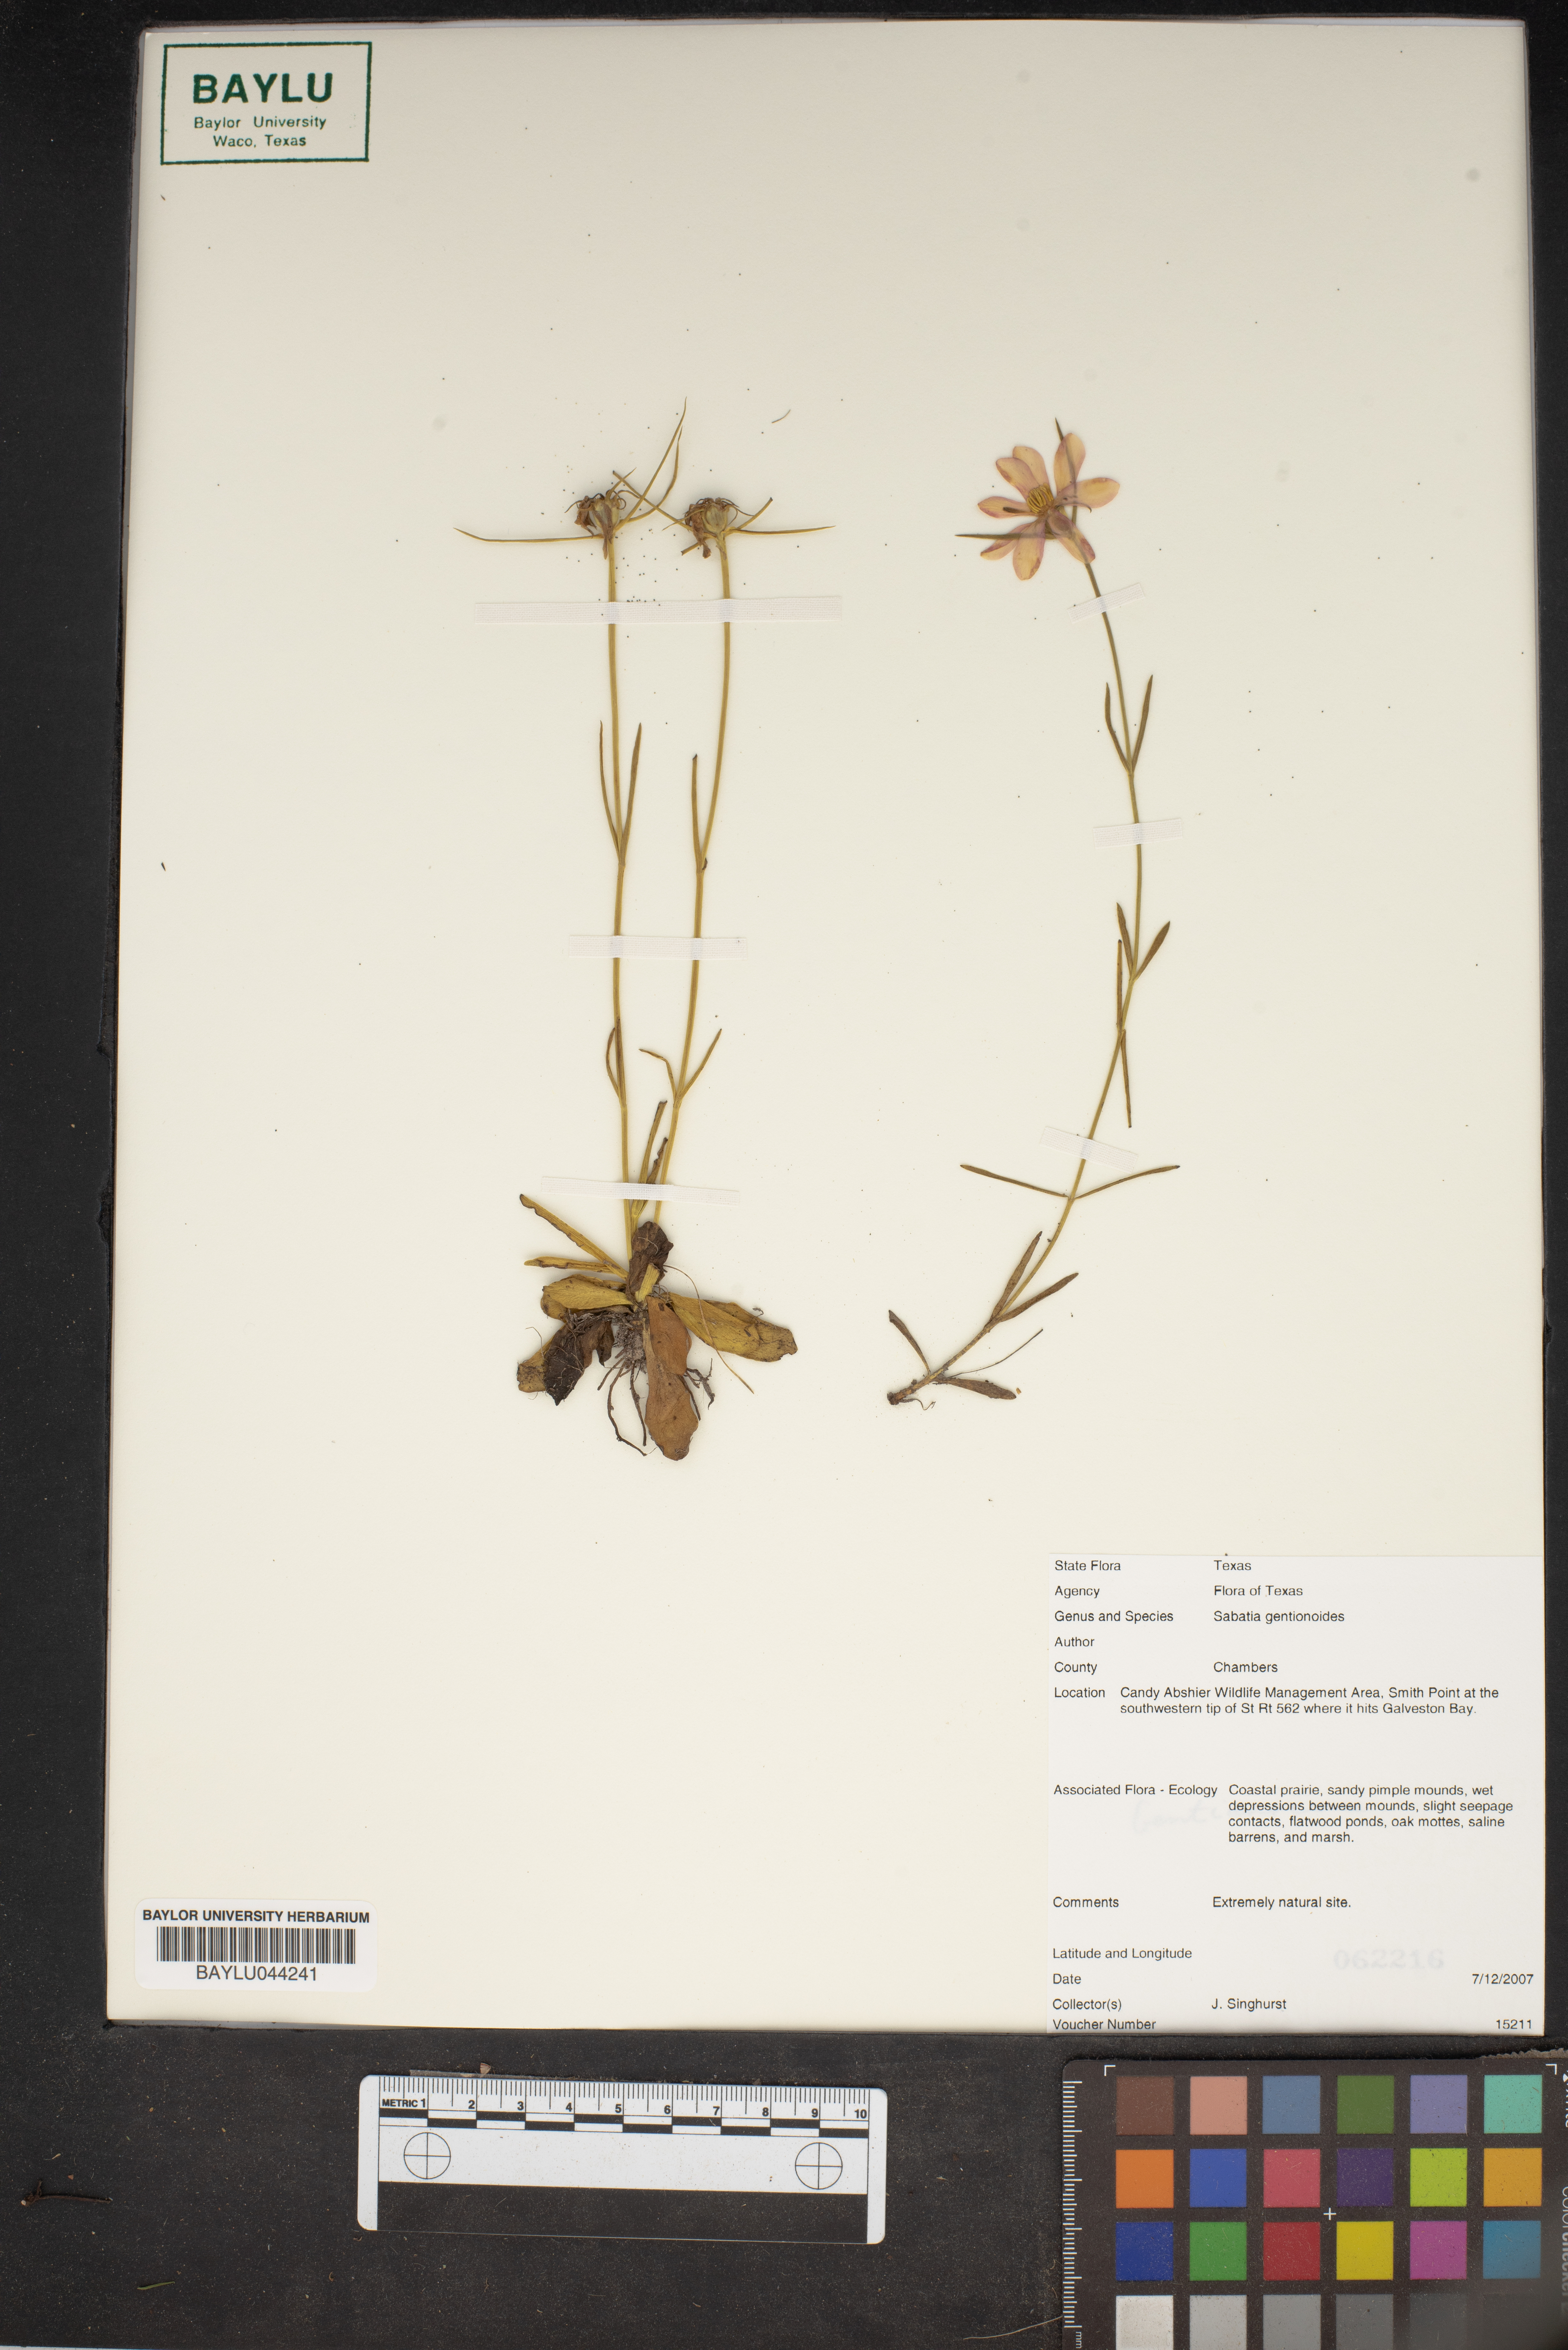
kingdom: Plantae
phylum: Tracheophyta
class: Magnoliopsida
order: Gentianales
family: Gentianaceae
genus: Sabatia
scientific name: Sabatia gentianoides
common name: Pinewoods rose-gentian
